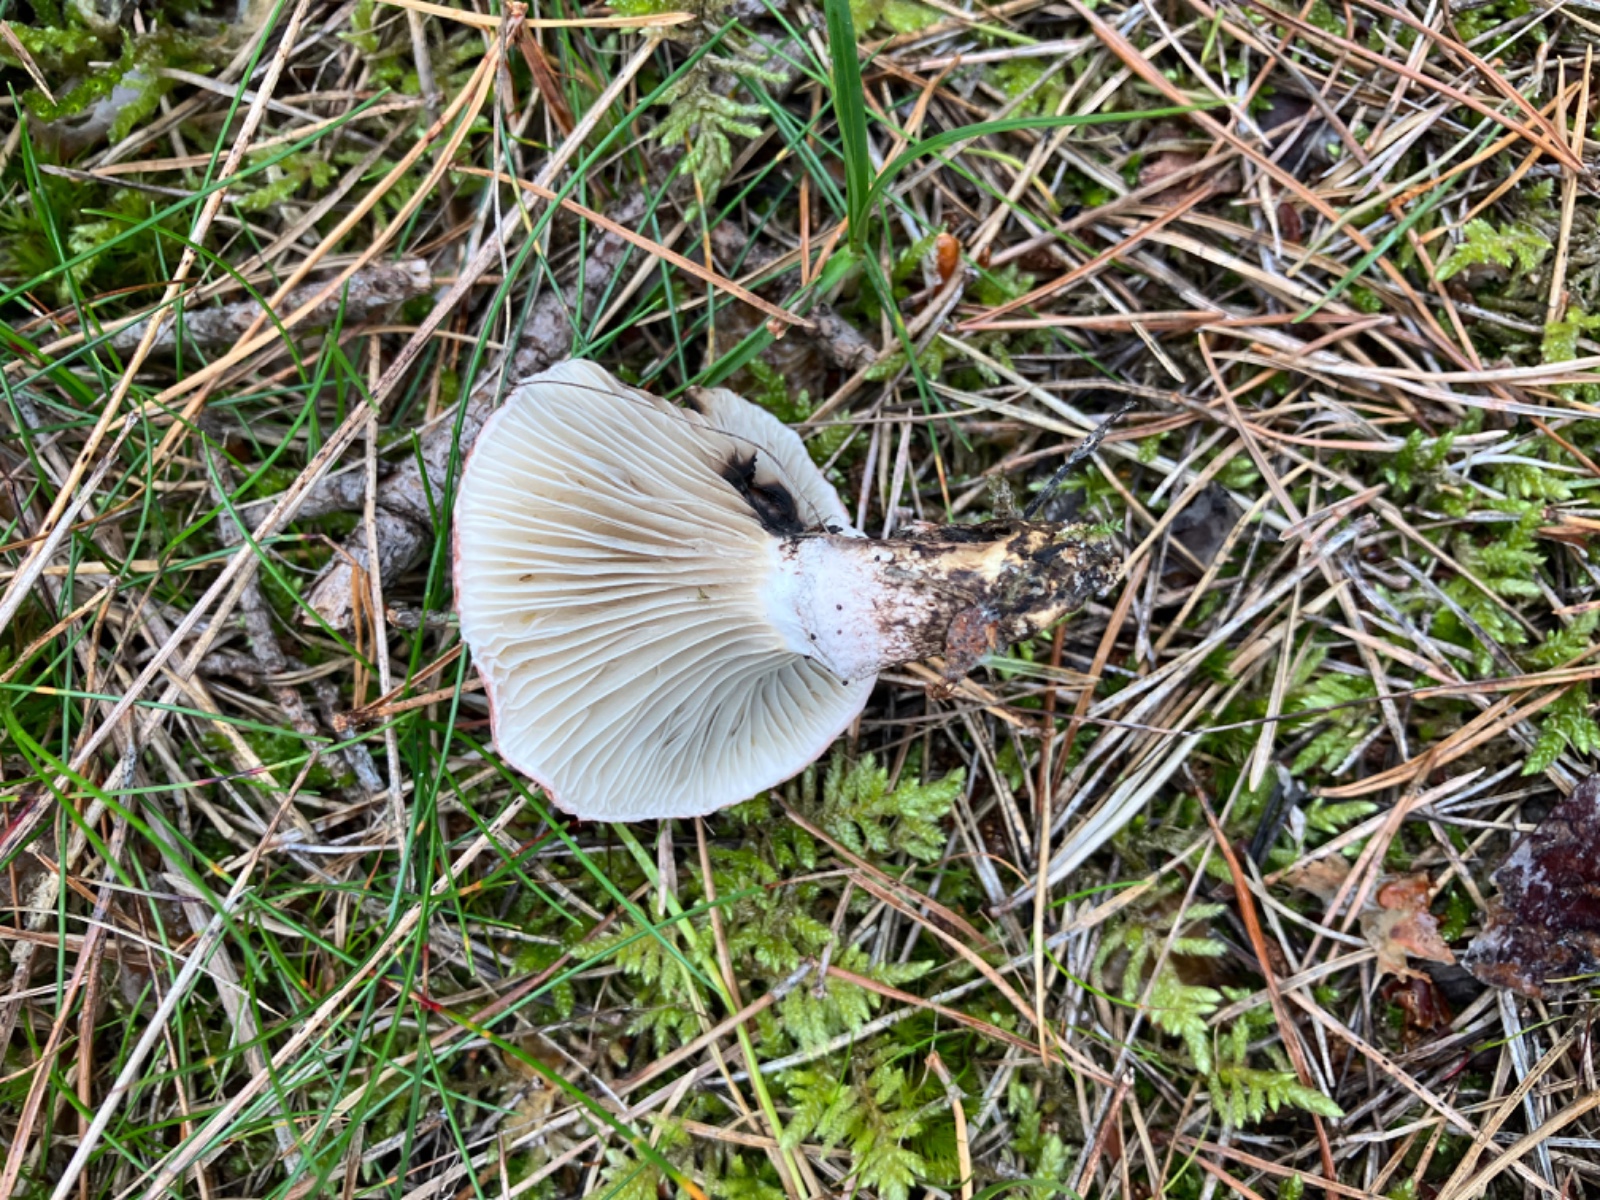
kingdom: Fungi
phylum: Basidiomycota
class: Agaricomycetes
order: Boletales
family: Gomphidiaceae
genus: Gomphidius
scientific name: Gomphidius roseus
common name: rosenrød slimslør
